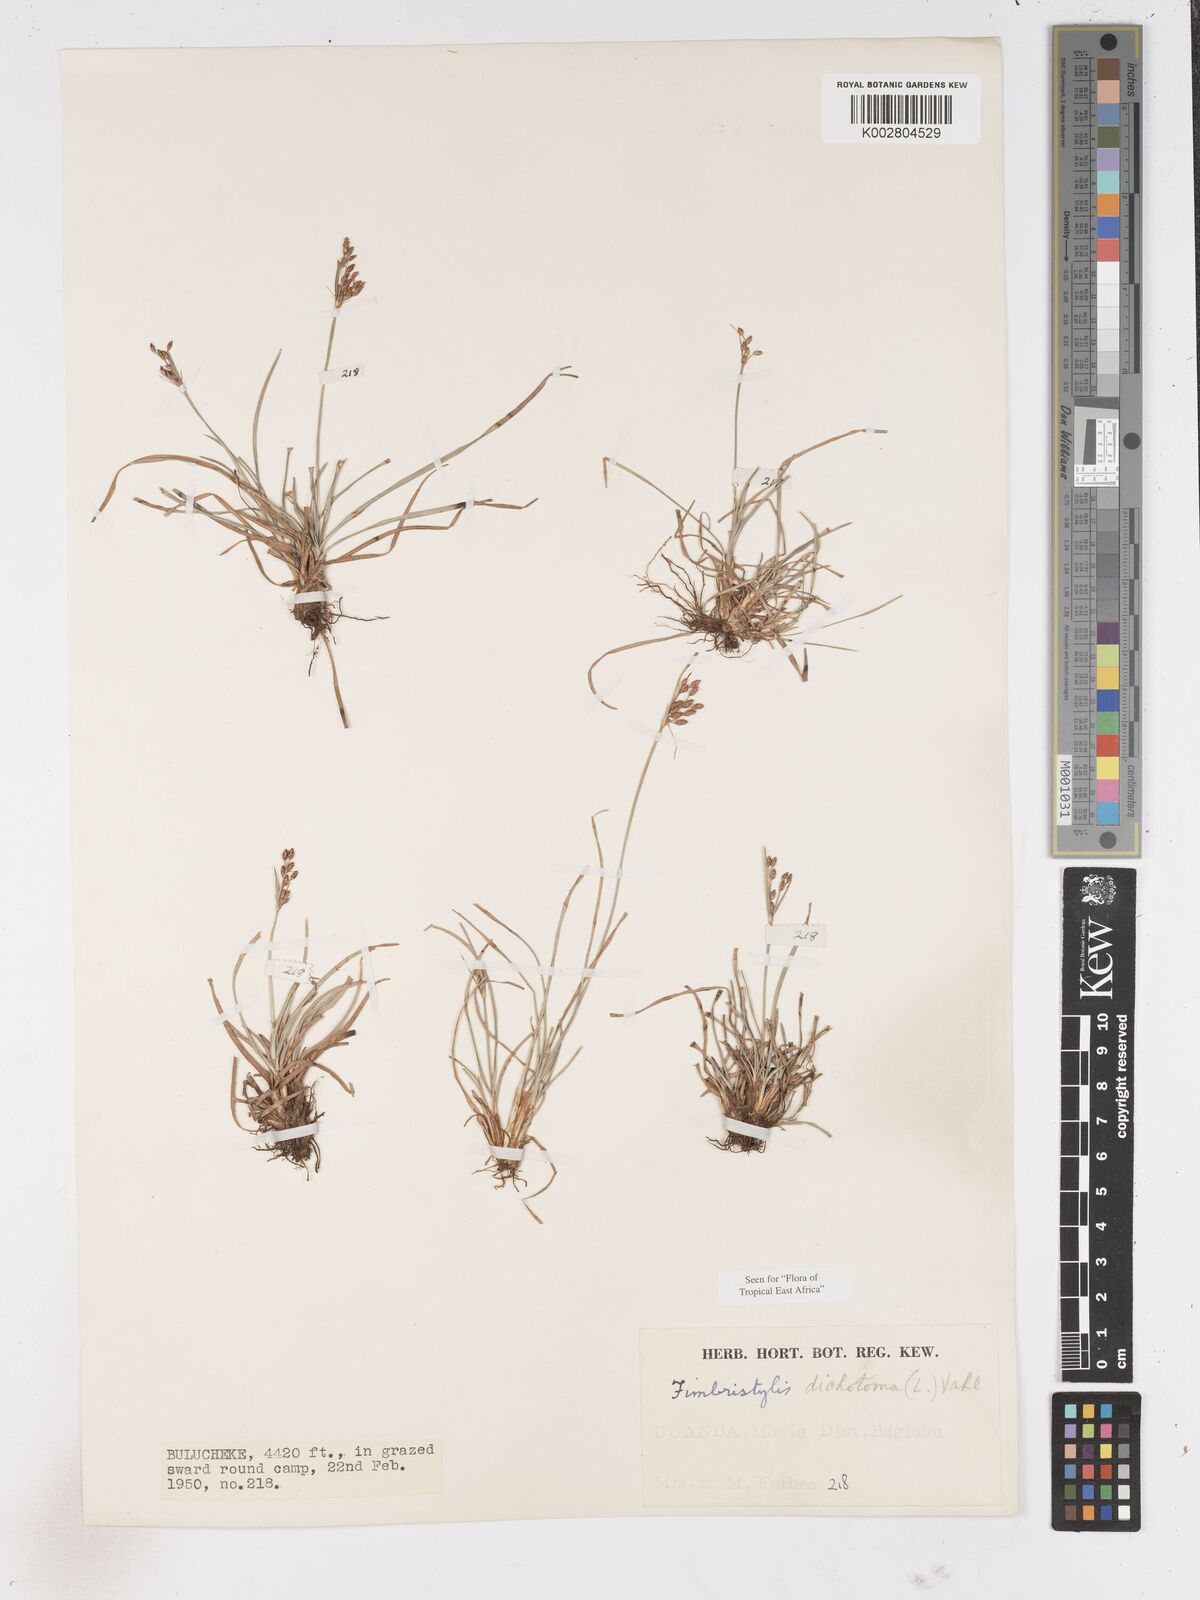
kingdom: Plantae
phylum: Tracheophyta
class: Liliopsida
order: Poales
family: Cyperaceae
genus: Fimbristylis
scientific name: Fimbristylis dichotoma
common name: Forked fimbry
